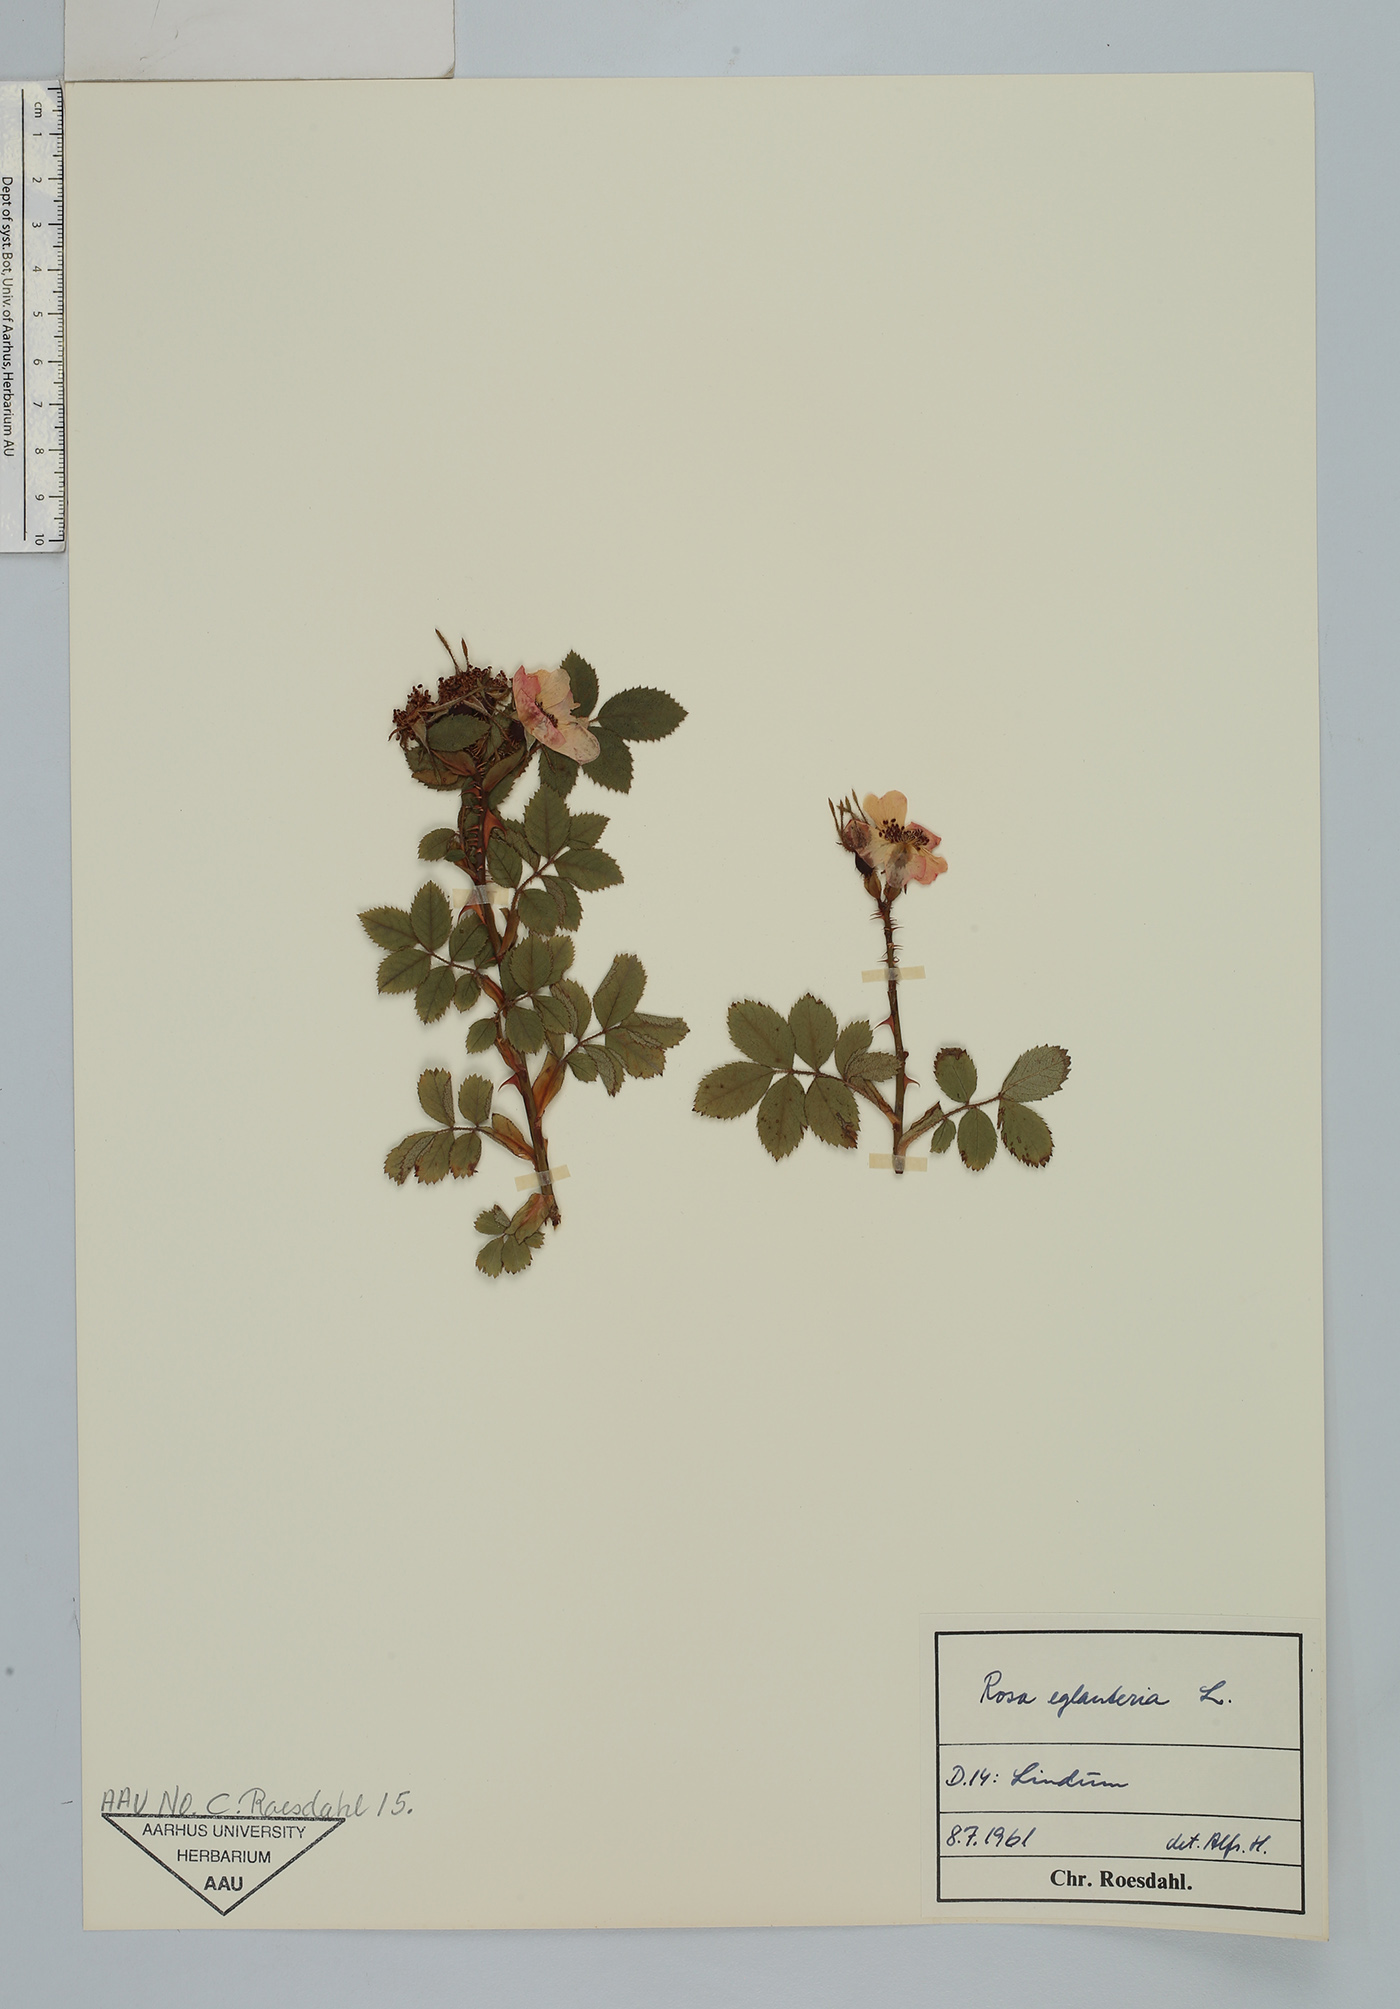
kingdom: Plantae
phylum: Tracheophyta
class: Magnoliopsida
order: Rosales
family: Rosaceae
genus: Rosa
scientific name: Rosa rubiginosa
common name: Sweet-briar
